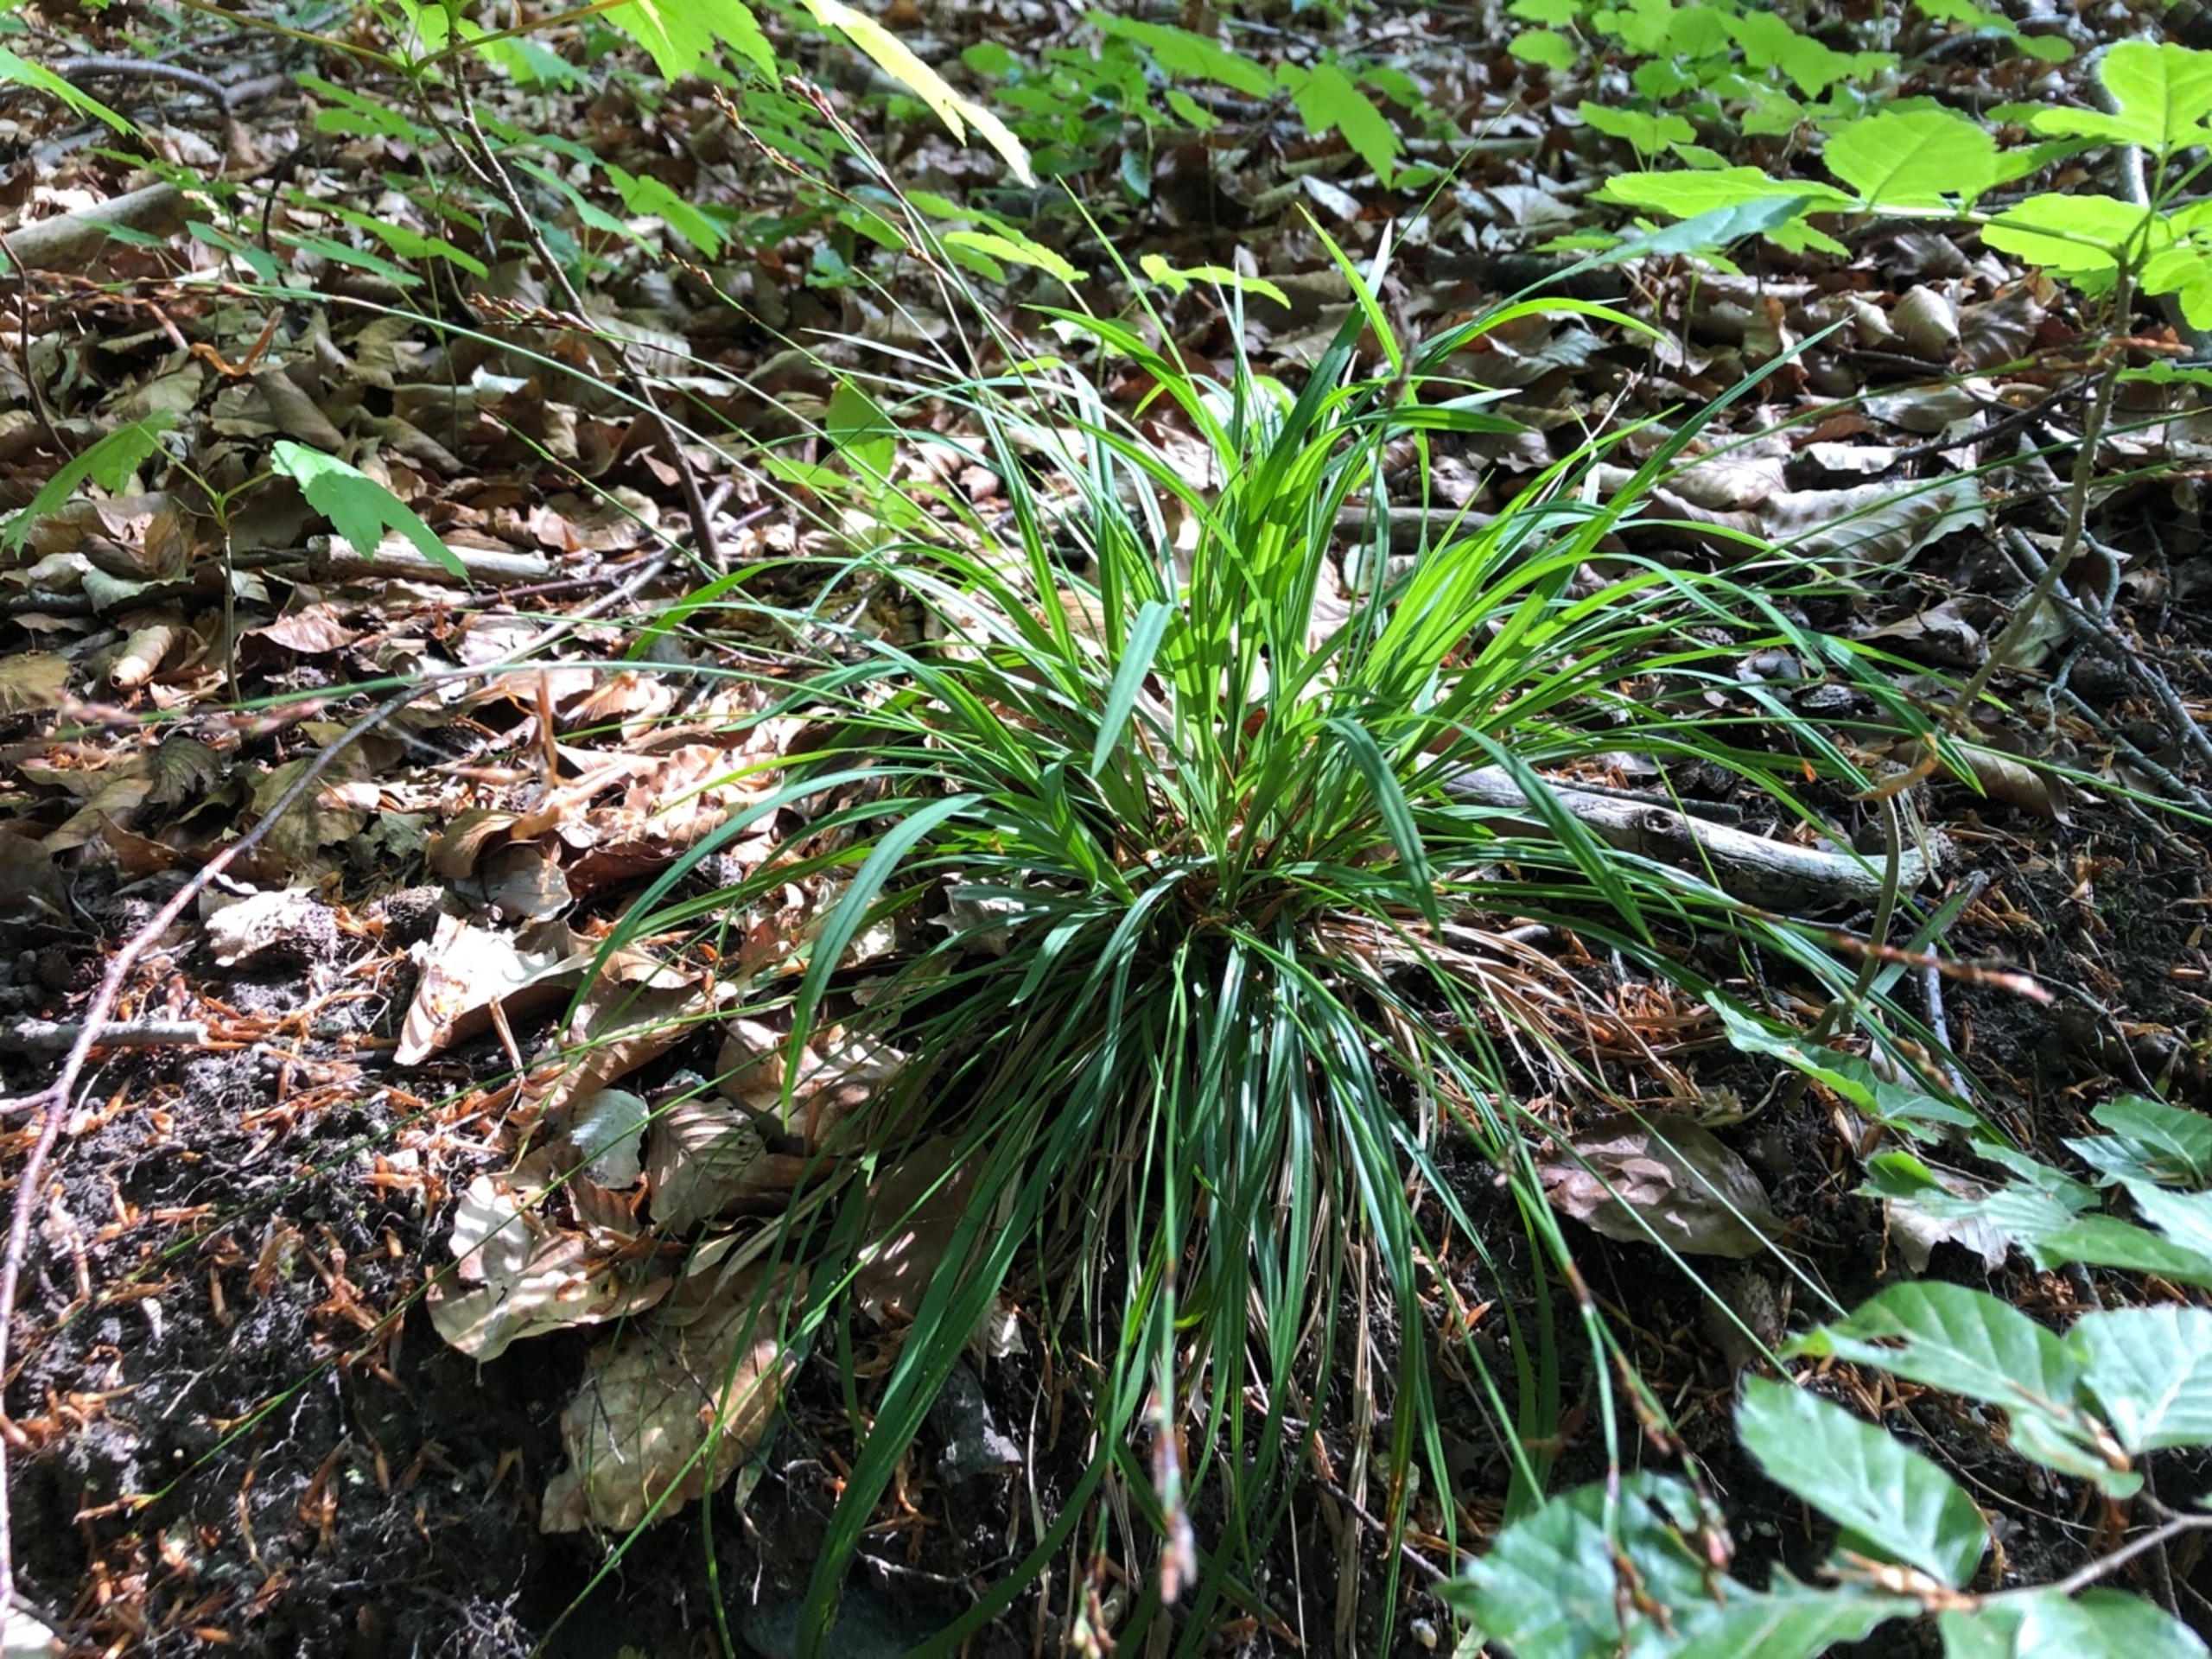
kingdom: Plantae
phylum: Tracheophyta
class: Liliopsida
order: Poales
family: Cyperaceae
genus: Carex
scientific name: Carex digitata
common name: Finger-star
